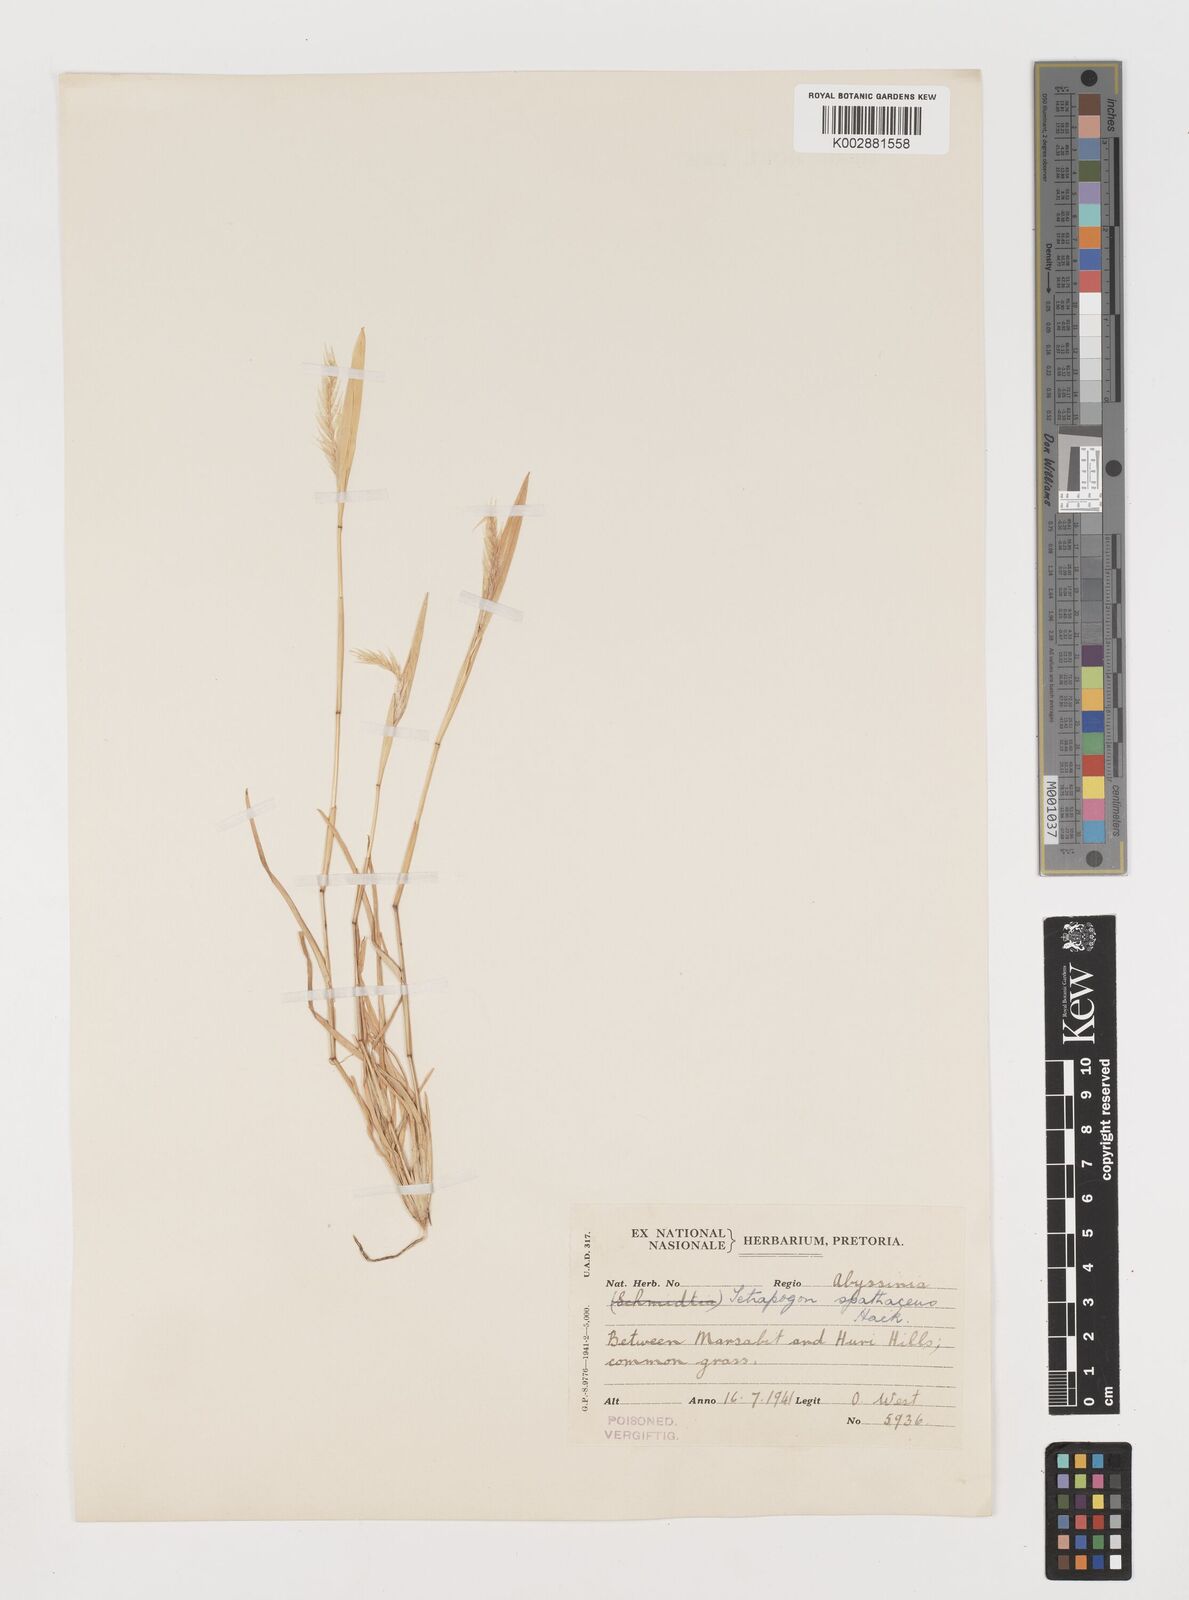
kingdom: Plantae
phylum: Tracheophyta
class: Liliopsida
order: Poales
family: Poaceae
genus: Tetrapogon
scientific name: Tetrapogon cenchriformis
